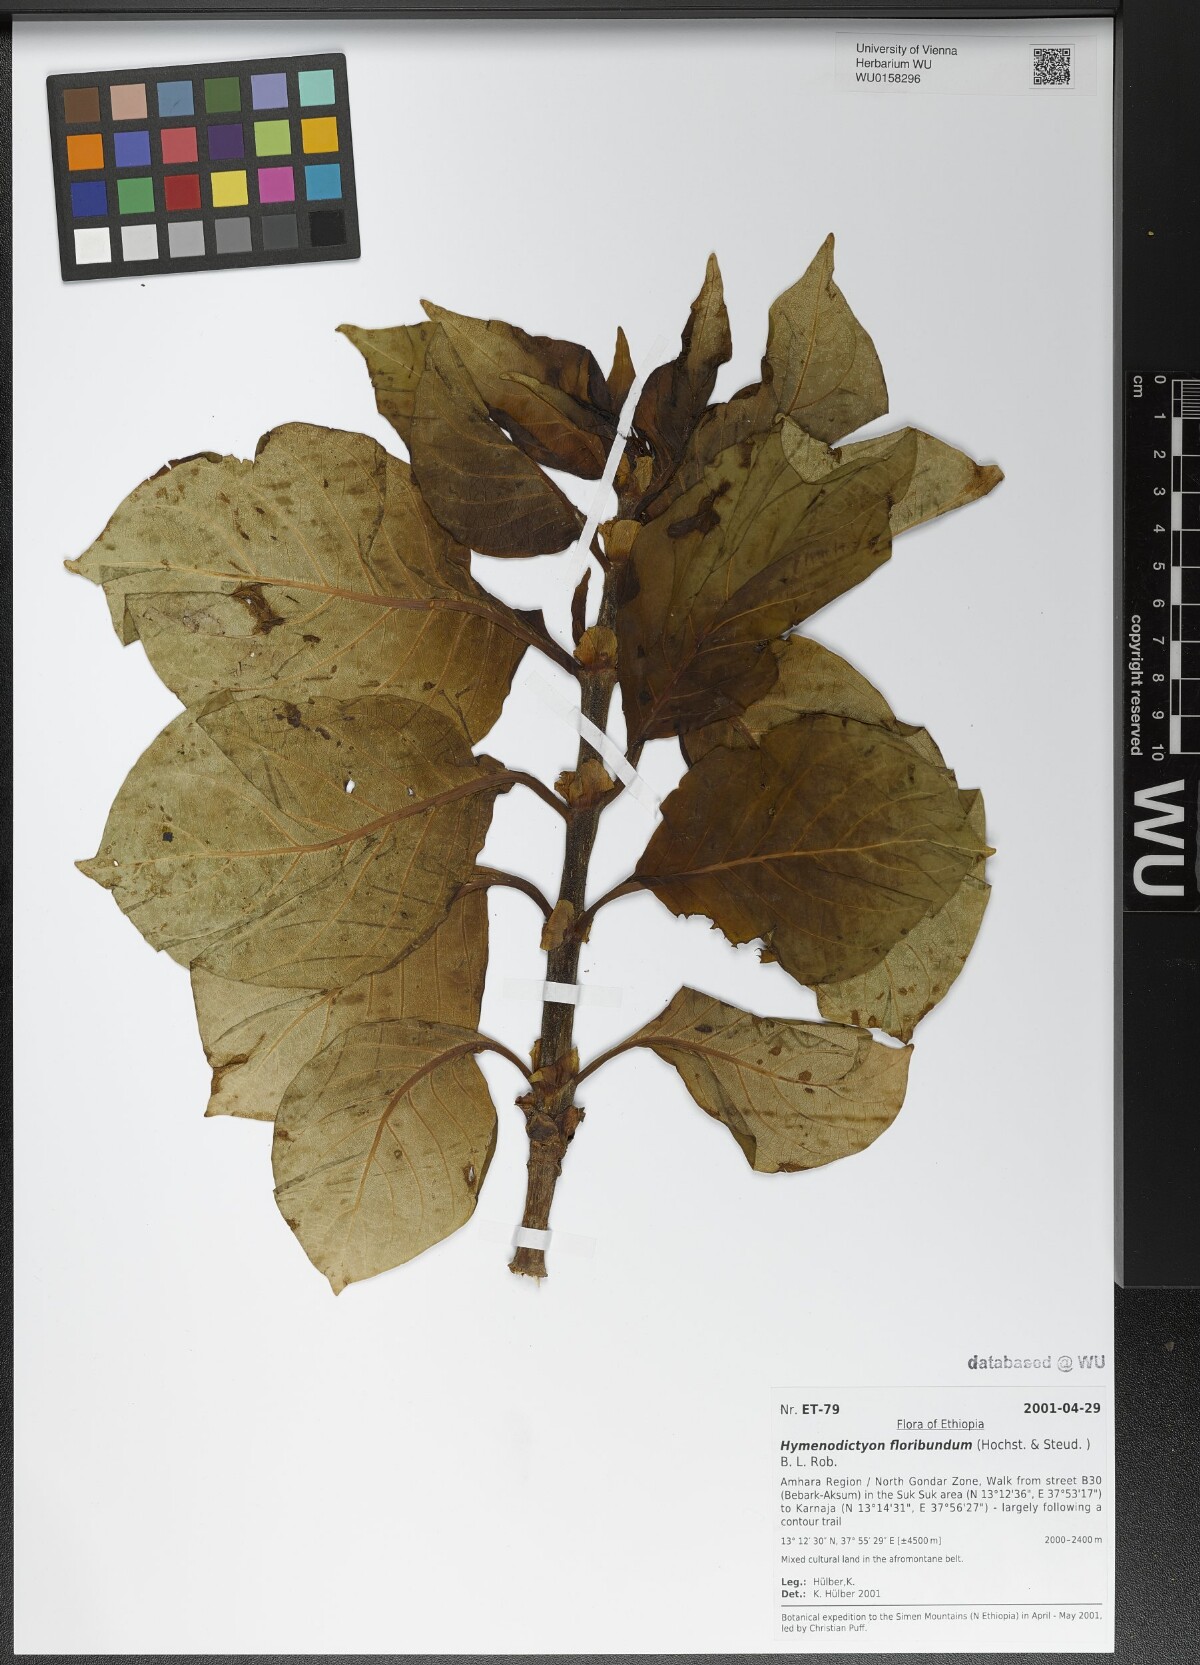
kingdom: Plantae
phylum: Tracheophyta
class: Magnoliopsida
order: Gentianales
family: Rubiaceae
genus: Hymenodictyon
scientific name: Hymenodictyon floribundum
